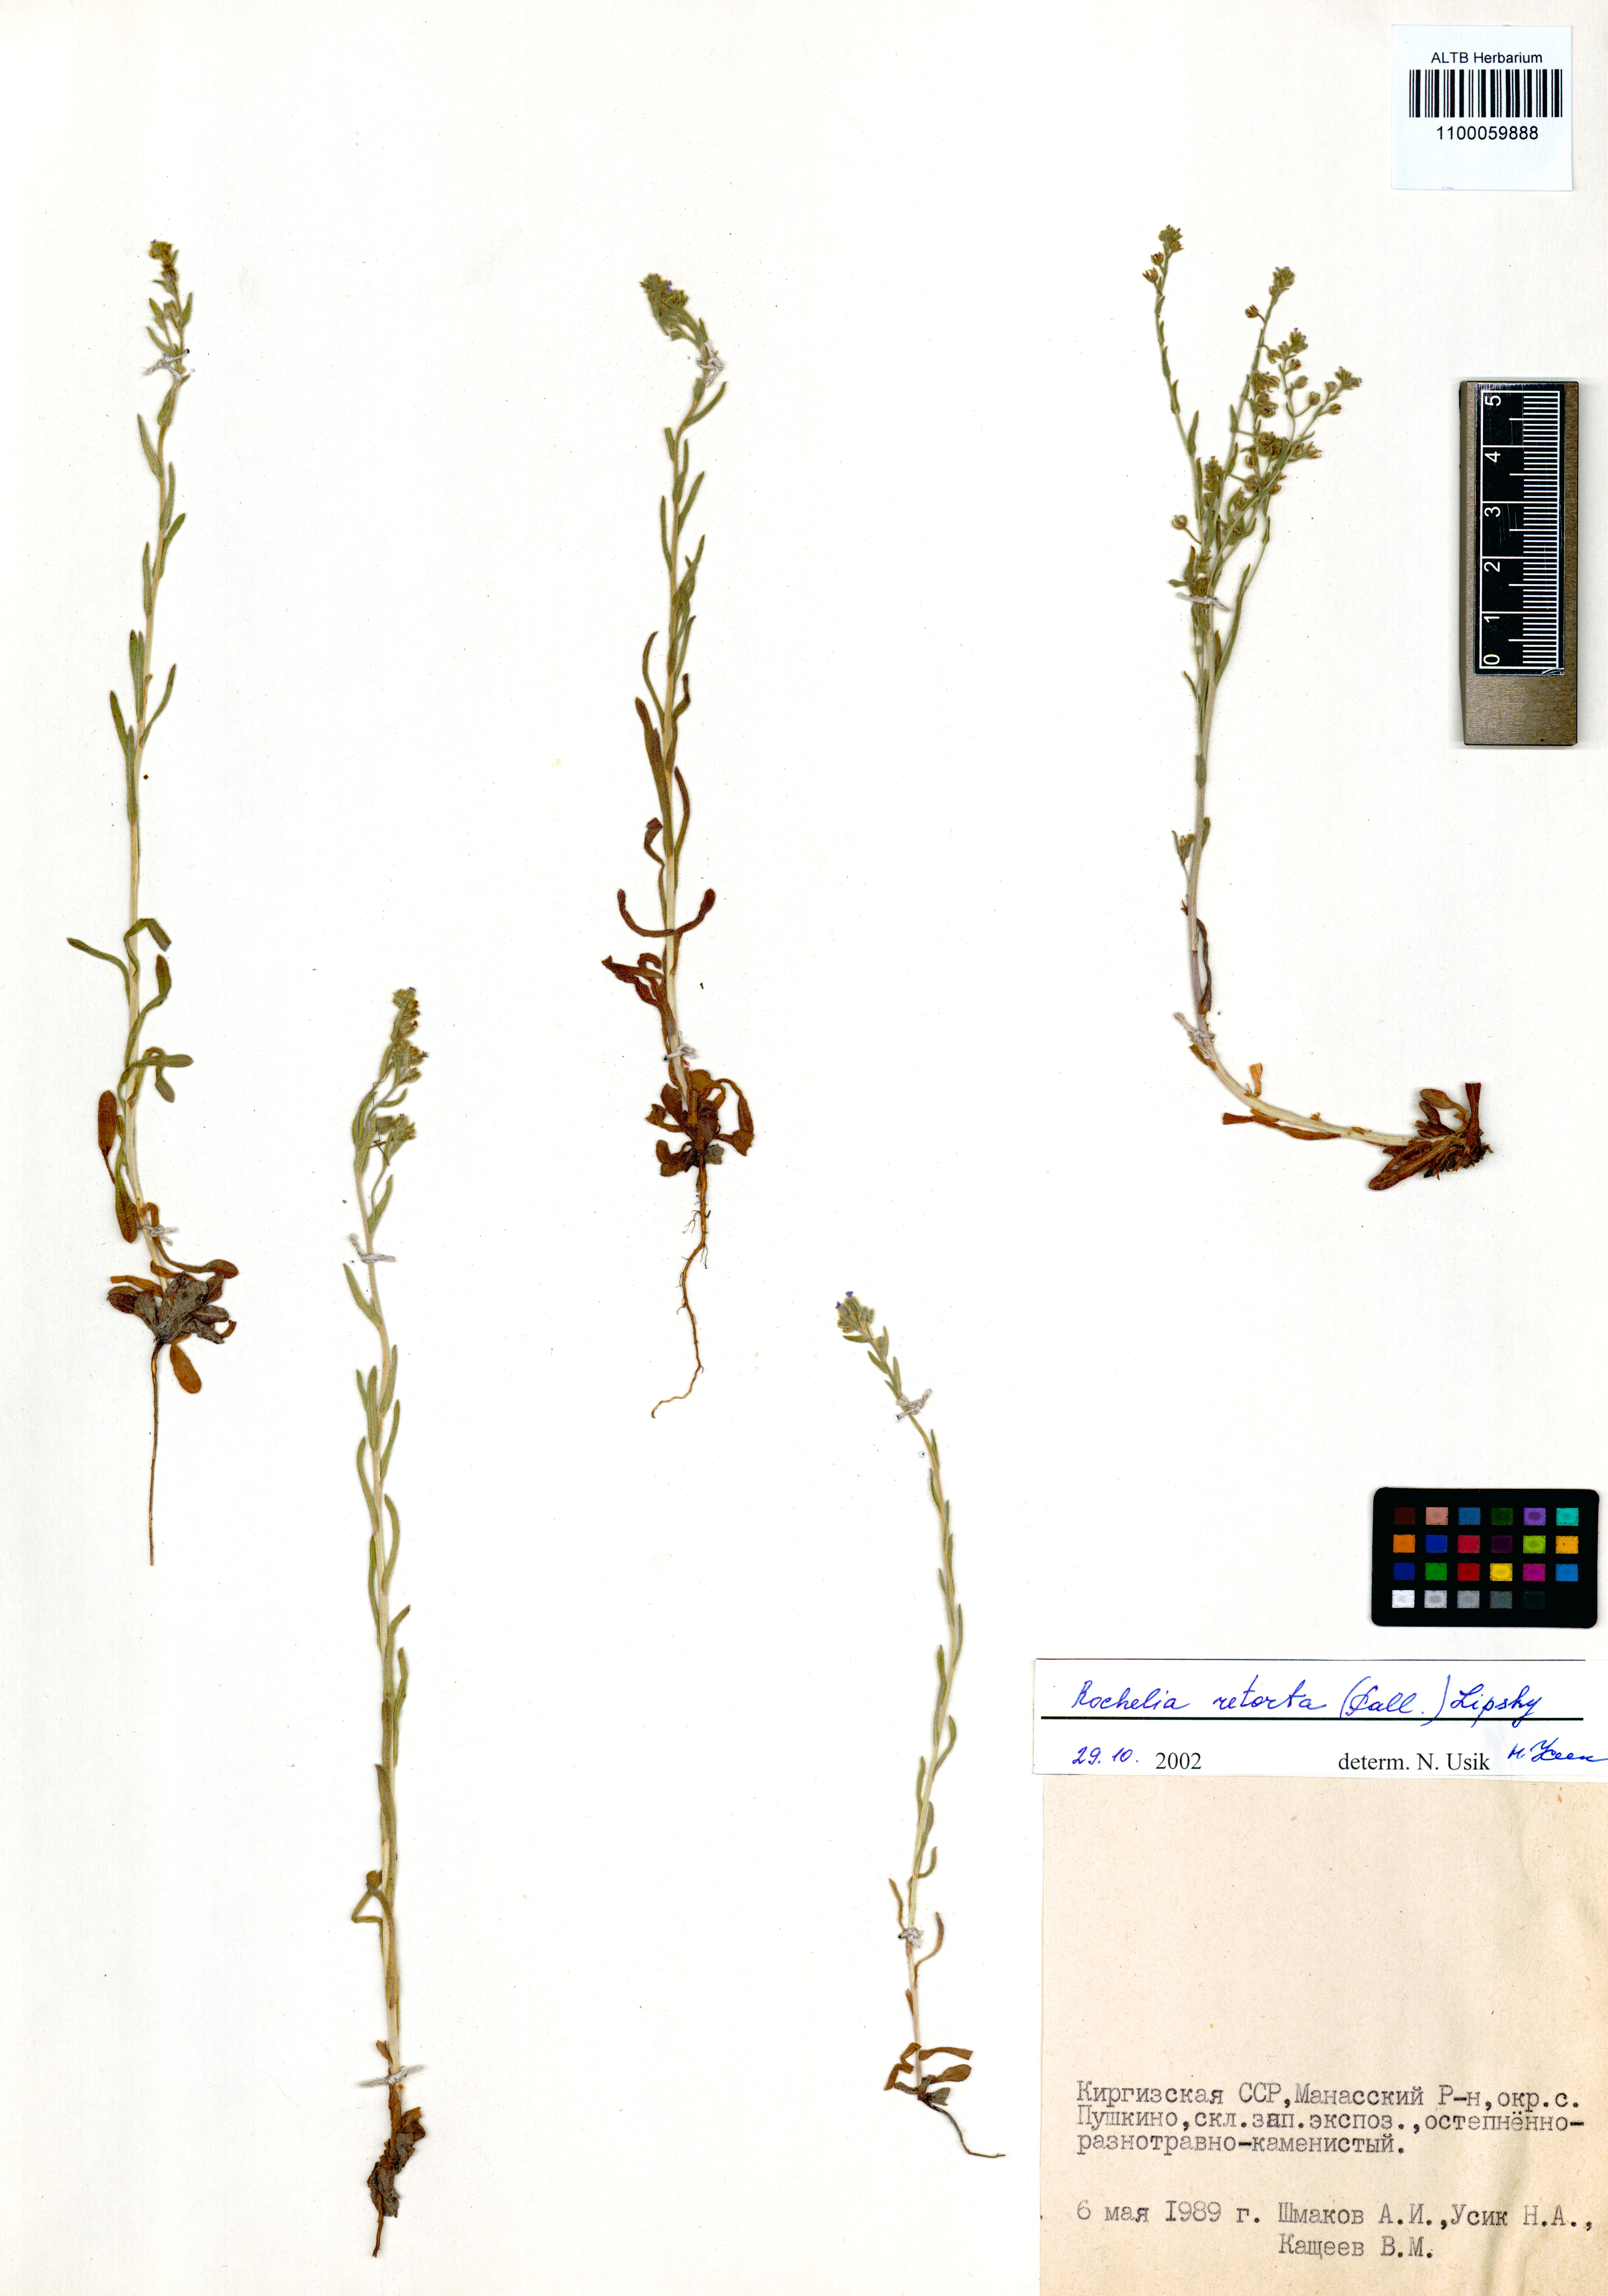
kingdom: Plantae
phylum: Tracheophyta
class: Magnoliopsida
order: Boraginales
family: Boraginaceae
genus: Rochelia
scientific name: Rochelia retorta
